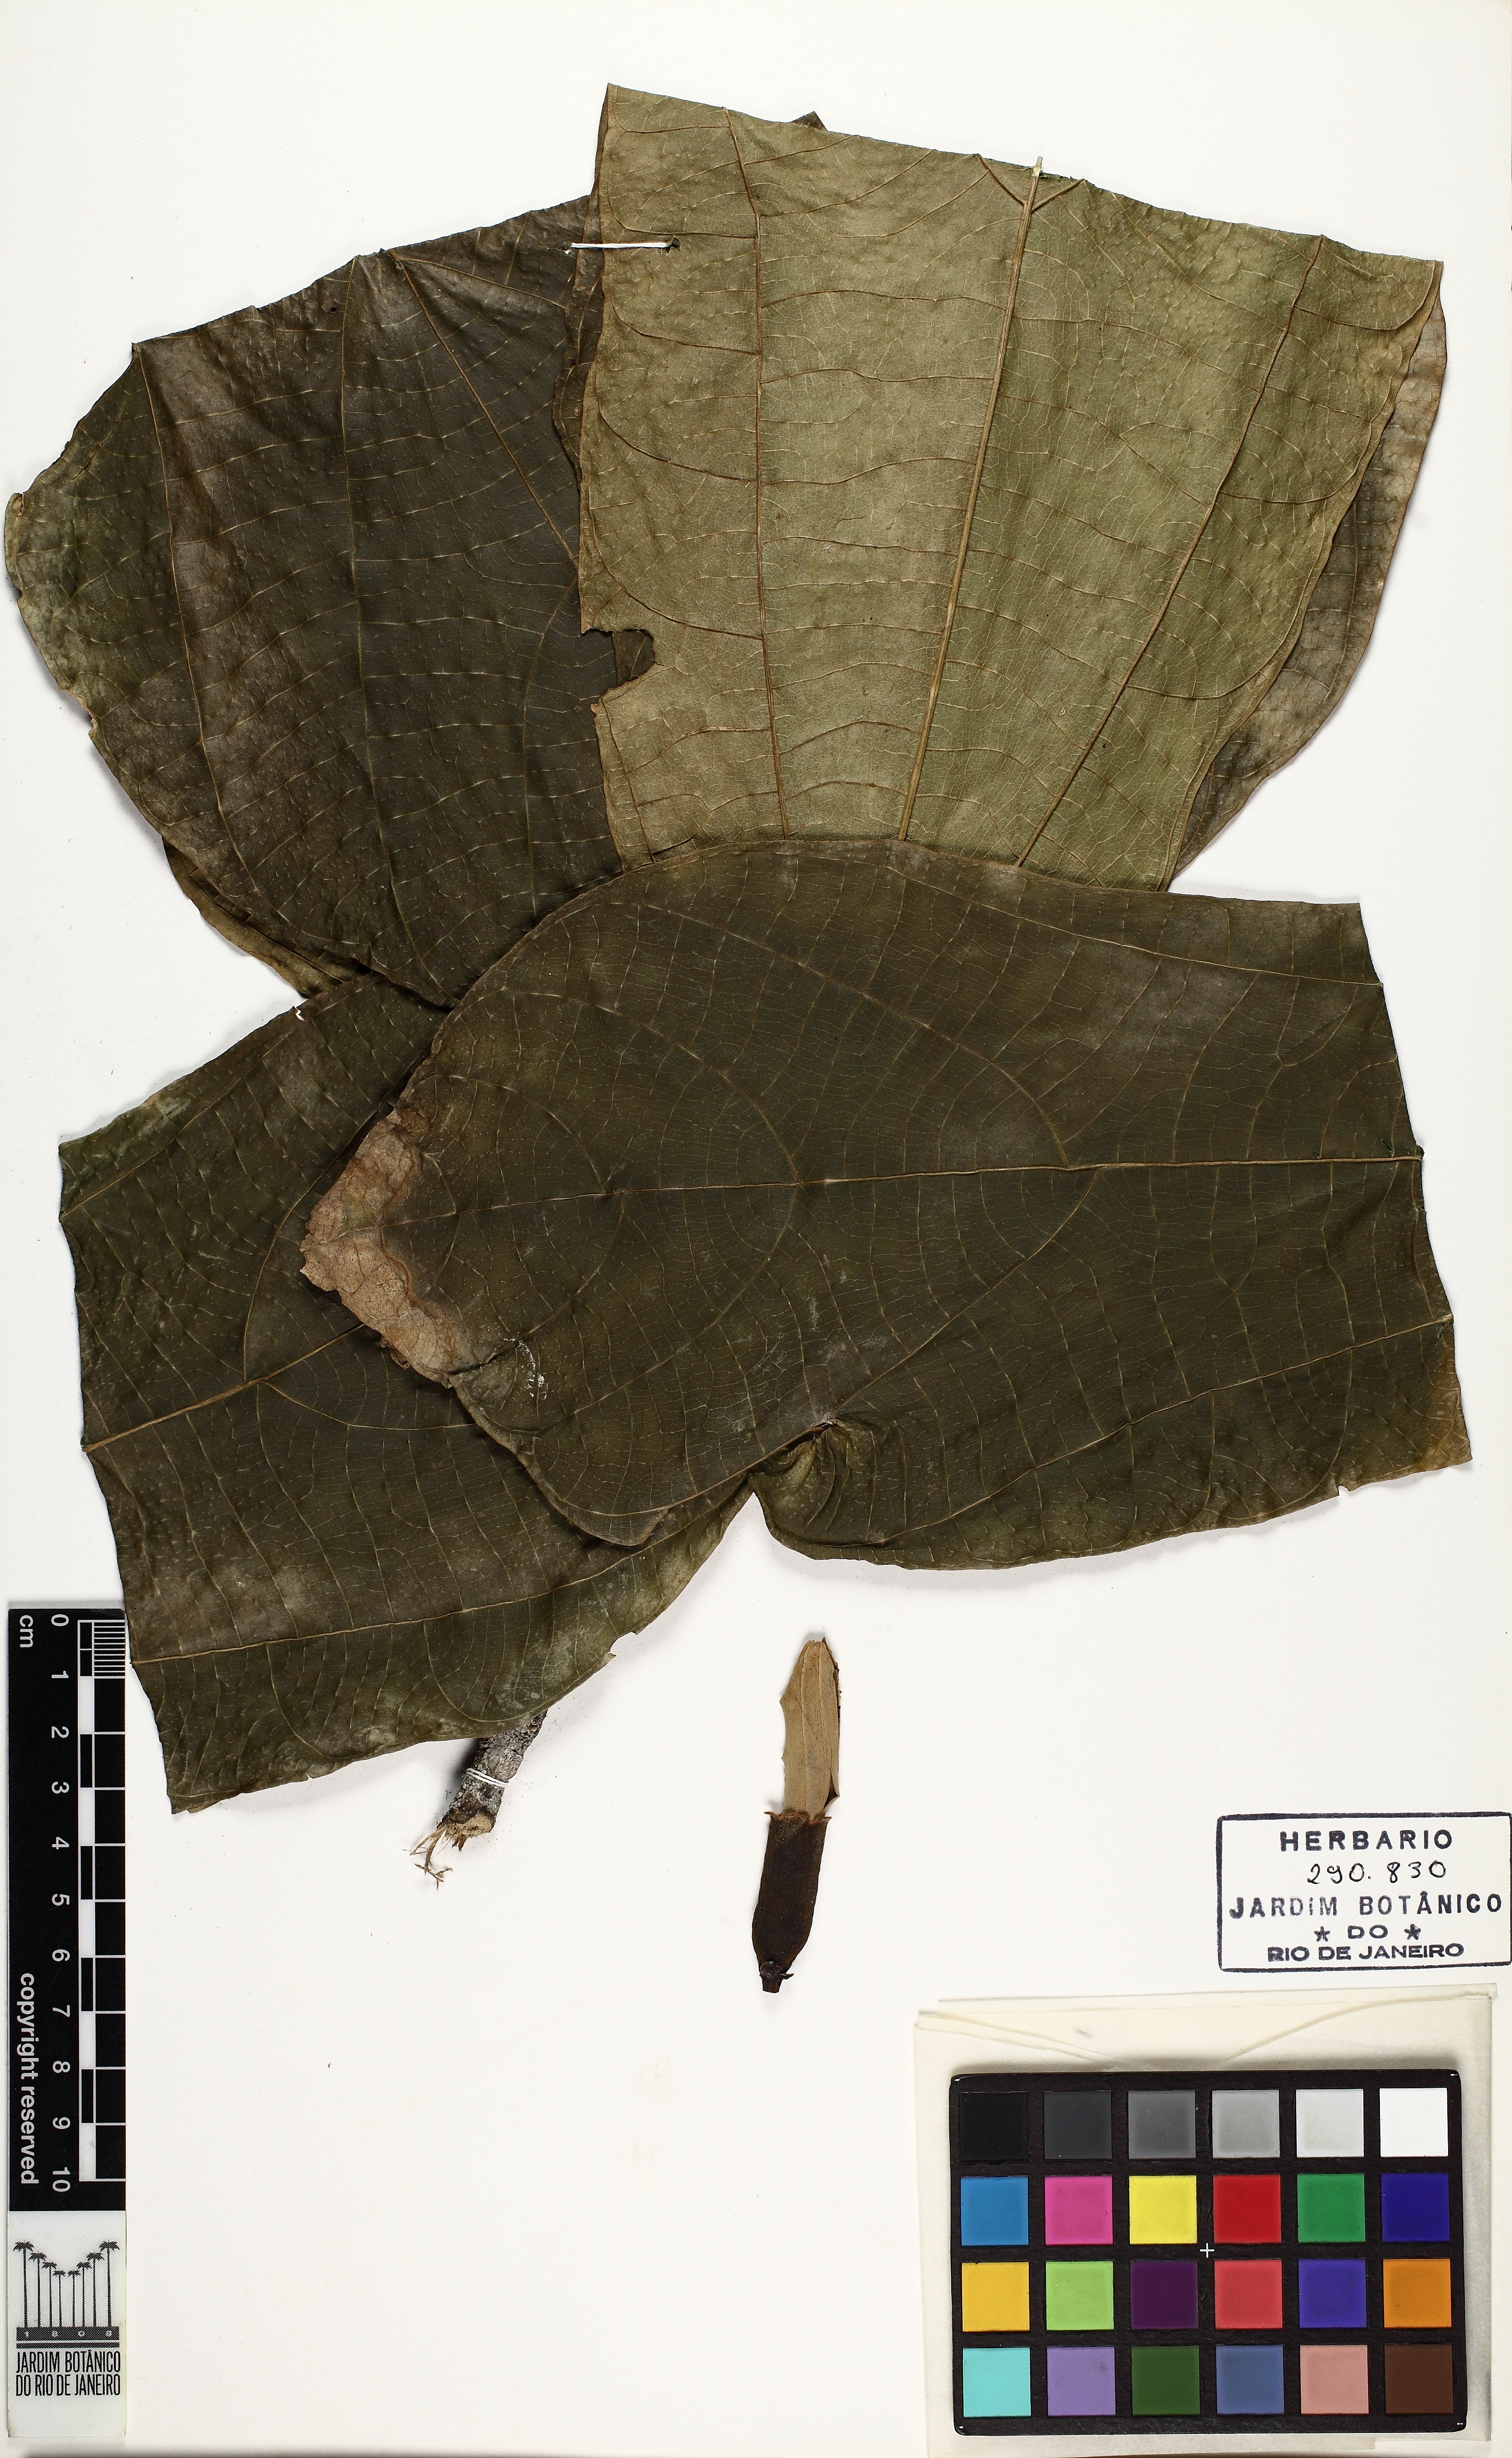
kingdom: Plantae
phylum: Tracheophyta
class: Magnoliopsida
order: Malvales
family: Malvaceae
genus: Patinoa
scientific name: Patinoa paraensis
